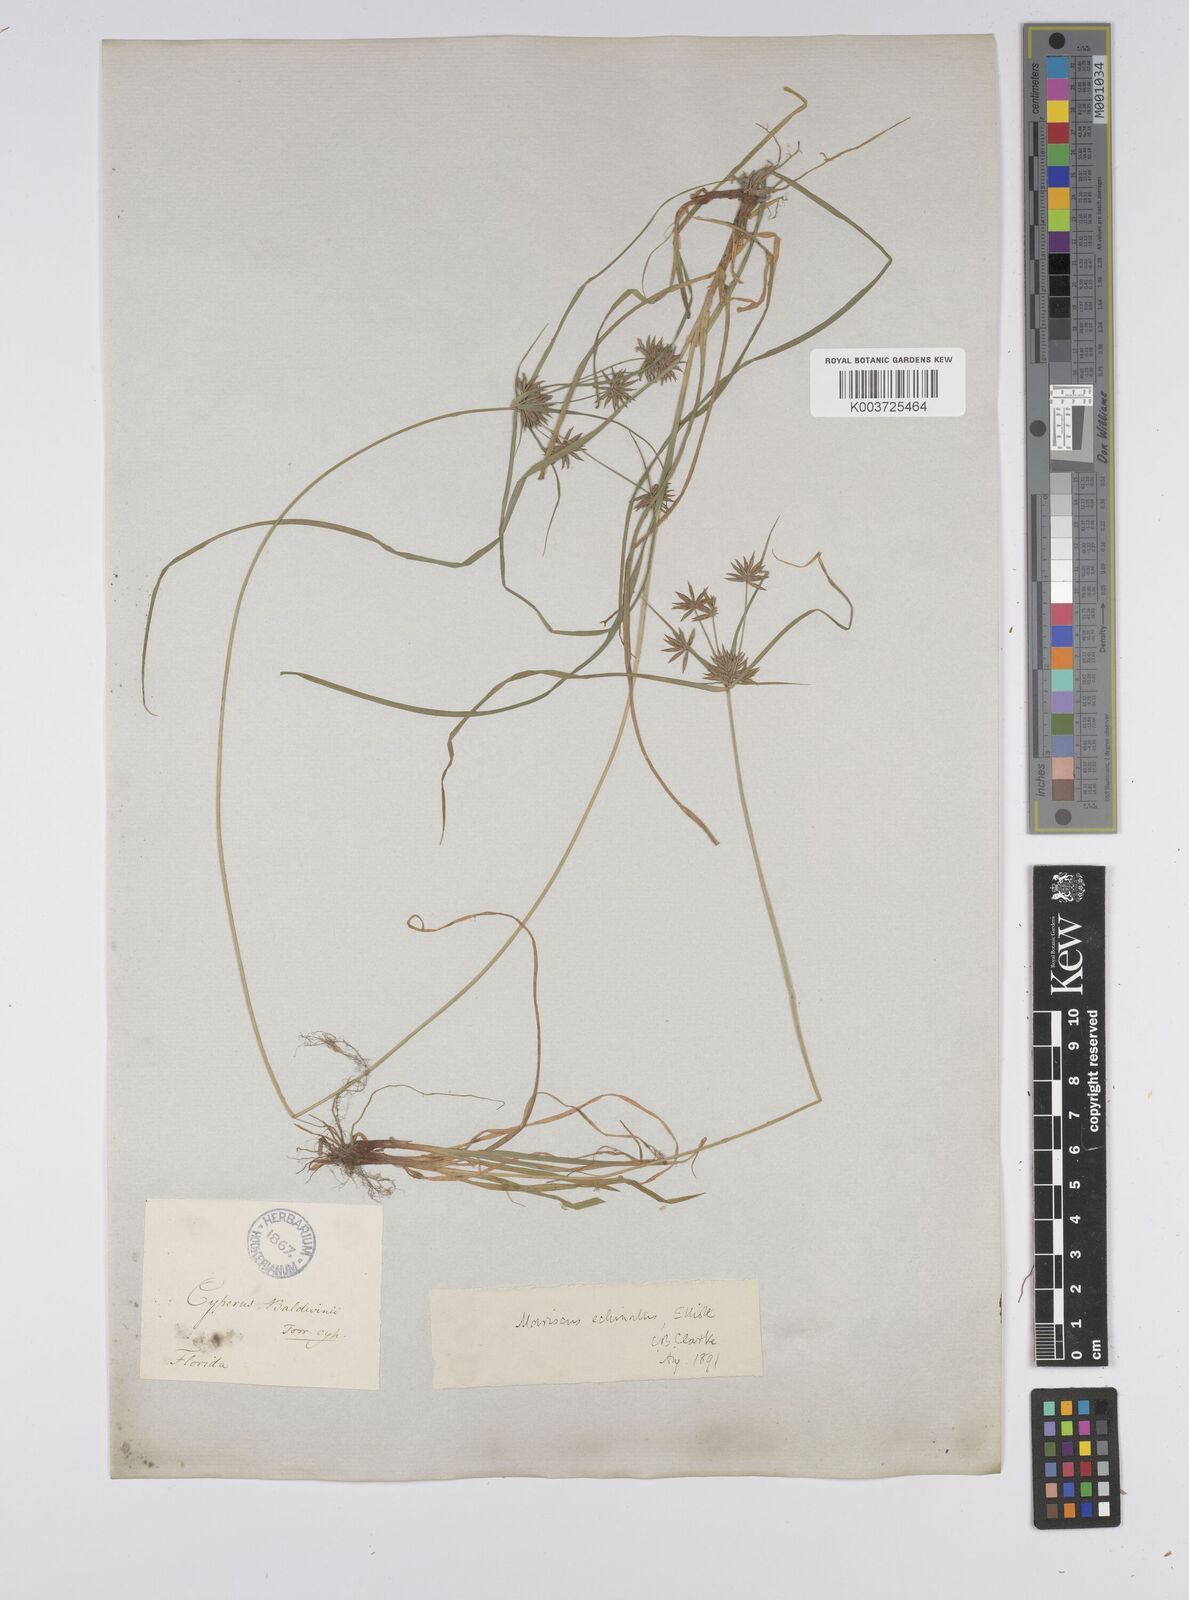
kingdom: Plantae
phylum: Tracheophyta
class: Liliopsida
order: Poales
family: Cyperaceae
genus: Cyperus
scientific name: Cyperus luzulae
